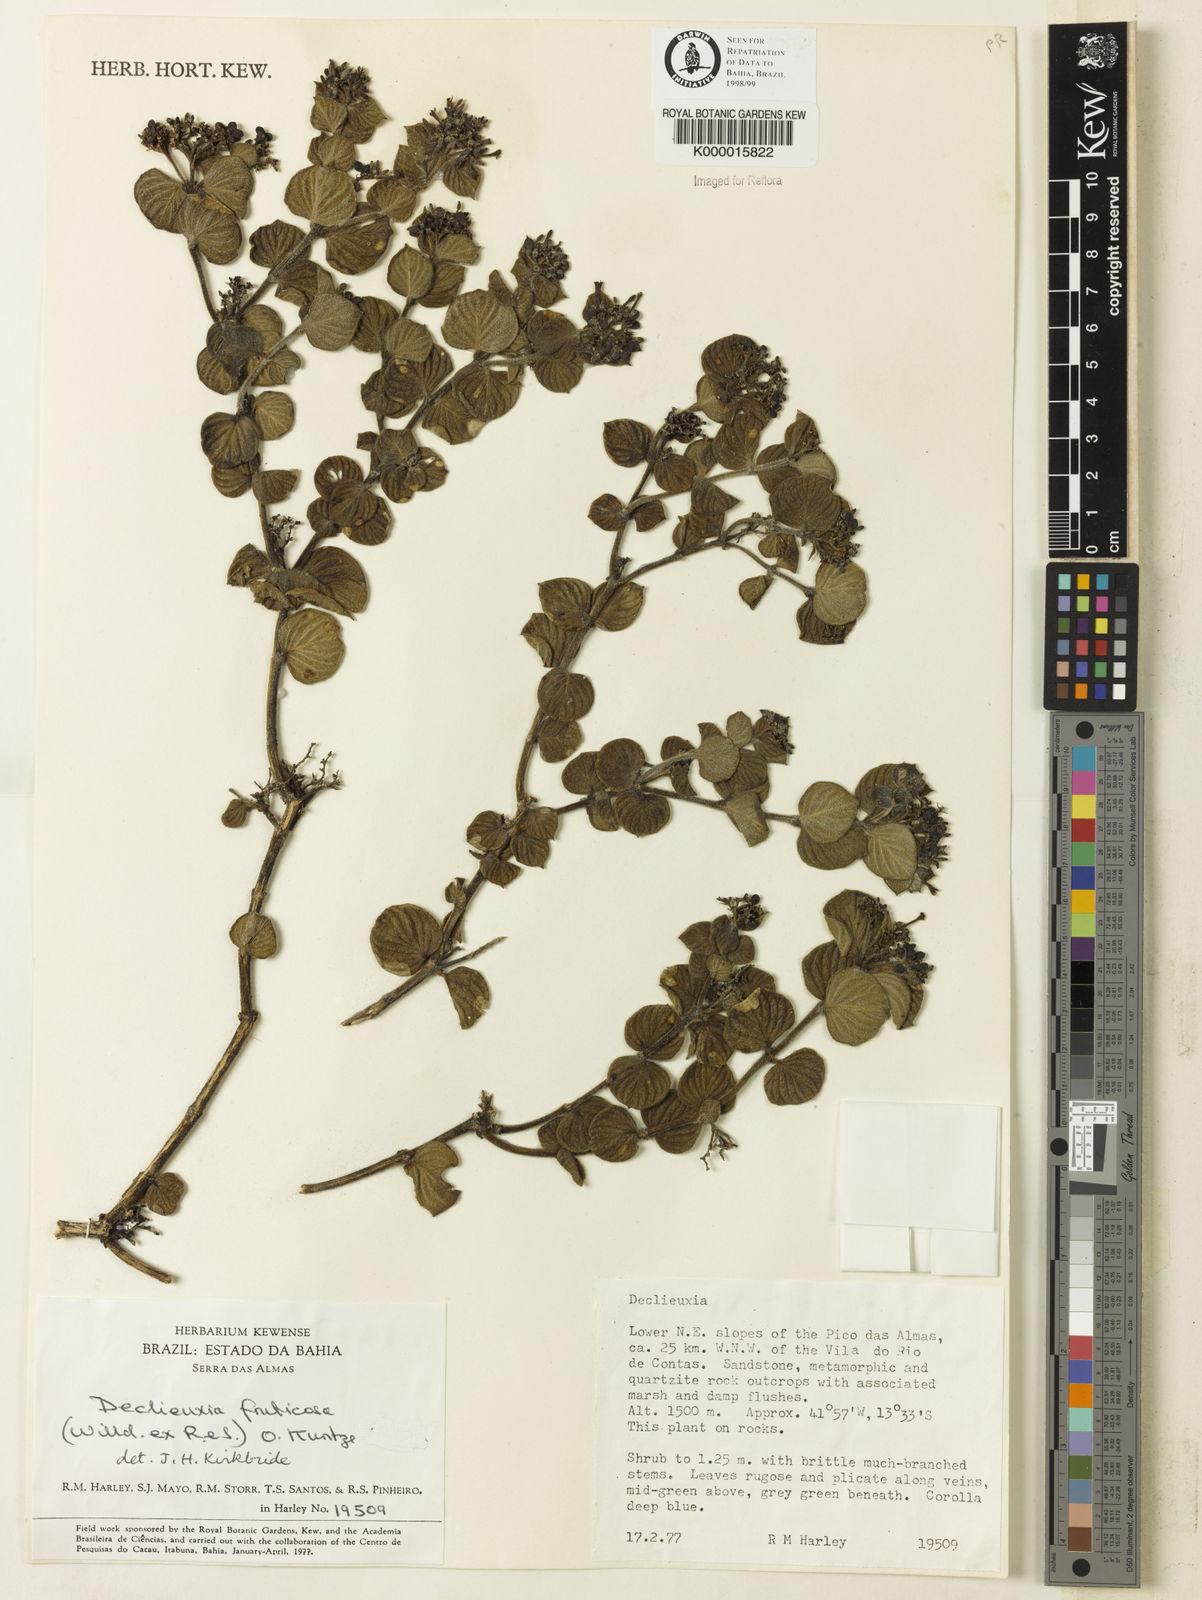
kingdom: Plantae
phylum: Tracheophyta
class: Magnoliopsida
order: Gentianales
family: Rubiaceae
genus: Declieuxia
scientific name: Declieuxia fruticosa
